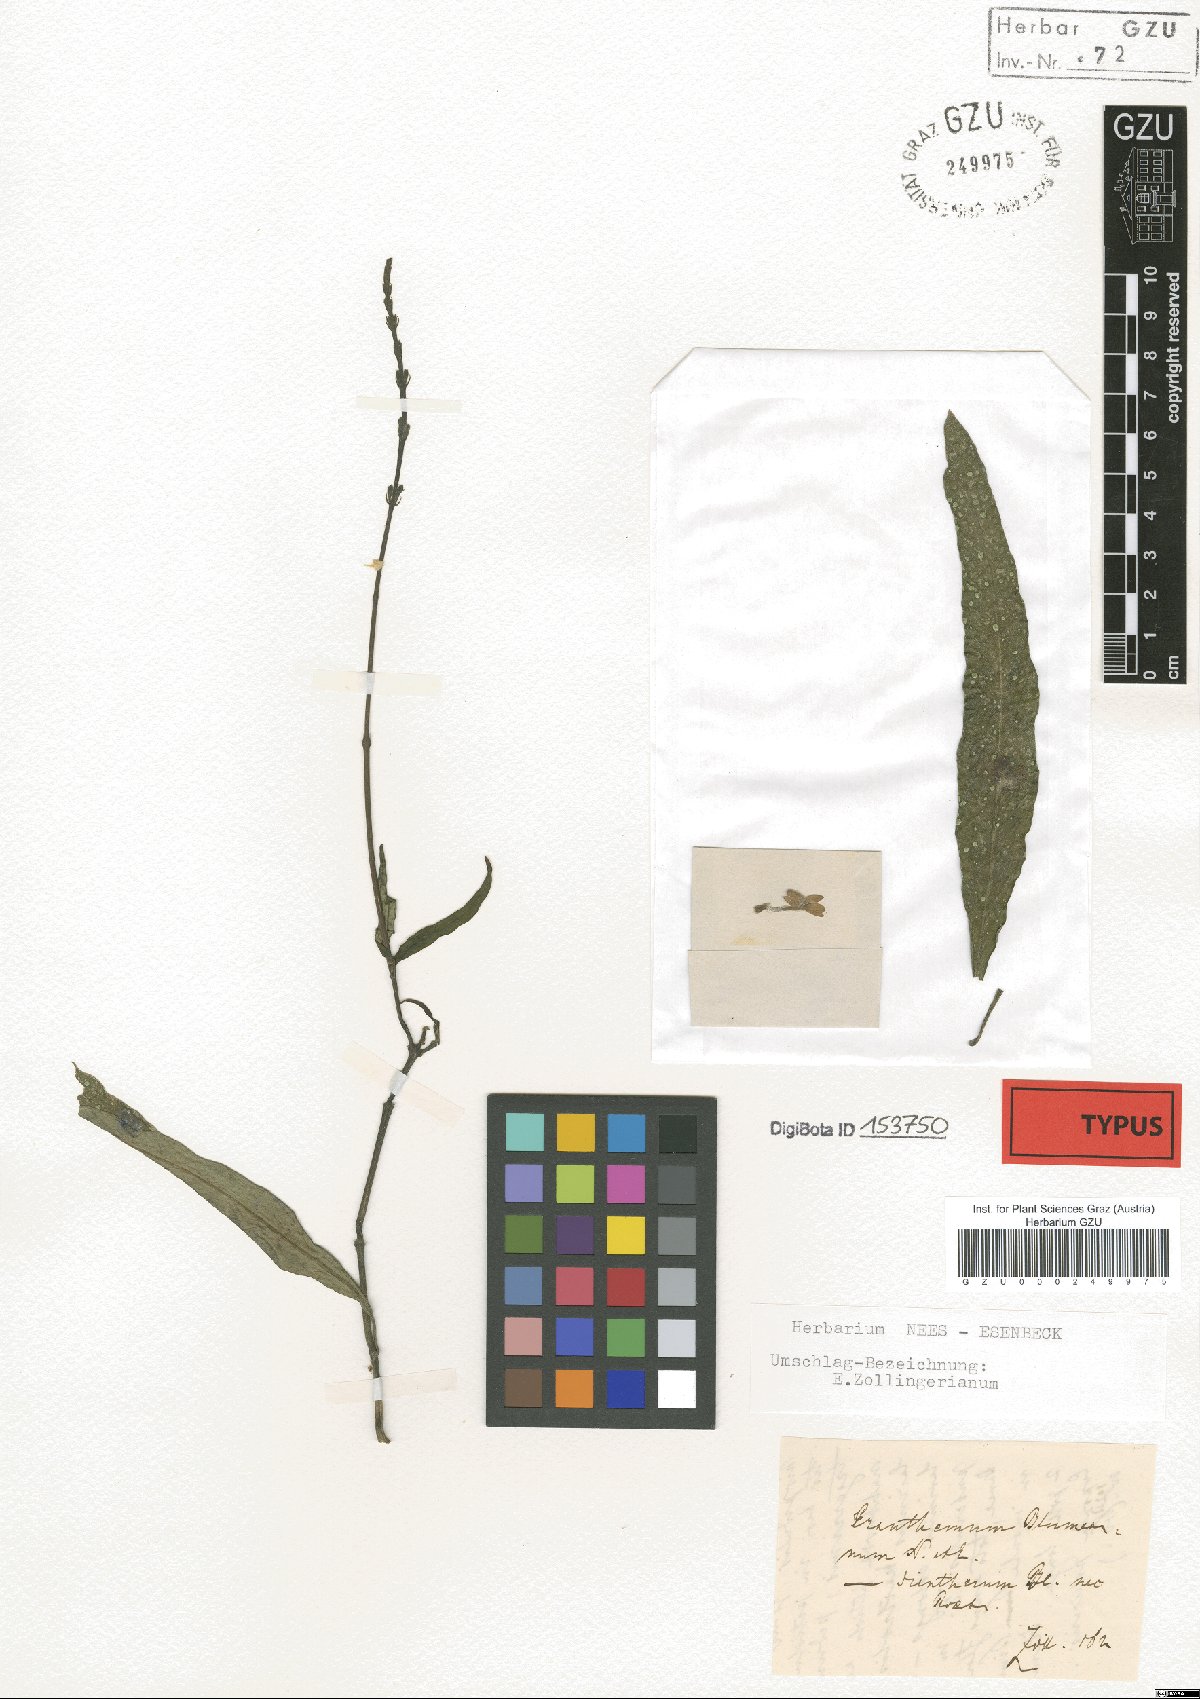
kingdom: Plantae
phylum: Tracheophyta
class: Magnoliopsida
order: Lamiales
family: Acanthaceae
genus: Pseuderanthemum
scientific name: Pseuderanthemum diversifolium
